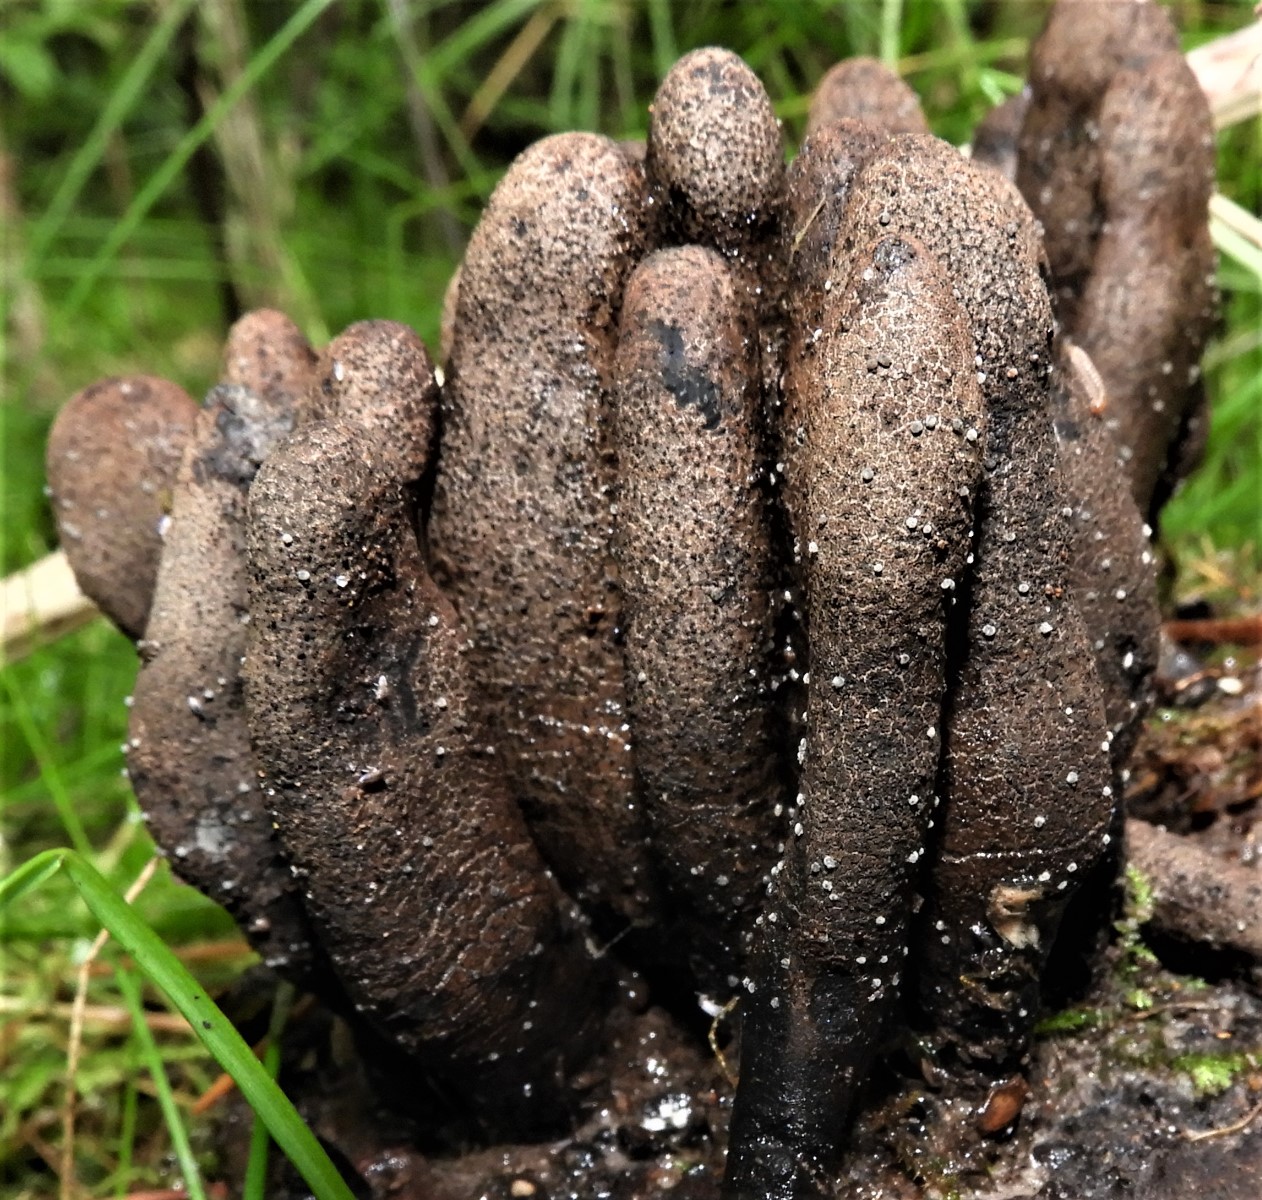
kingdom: Fungi
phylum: Ascomycota
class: Sordariomycetes
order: Xylariales
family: Xylariaceae
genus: Xylaria
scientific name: Xylaria polymorpha
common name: kølle-stødsvamp
